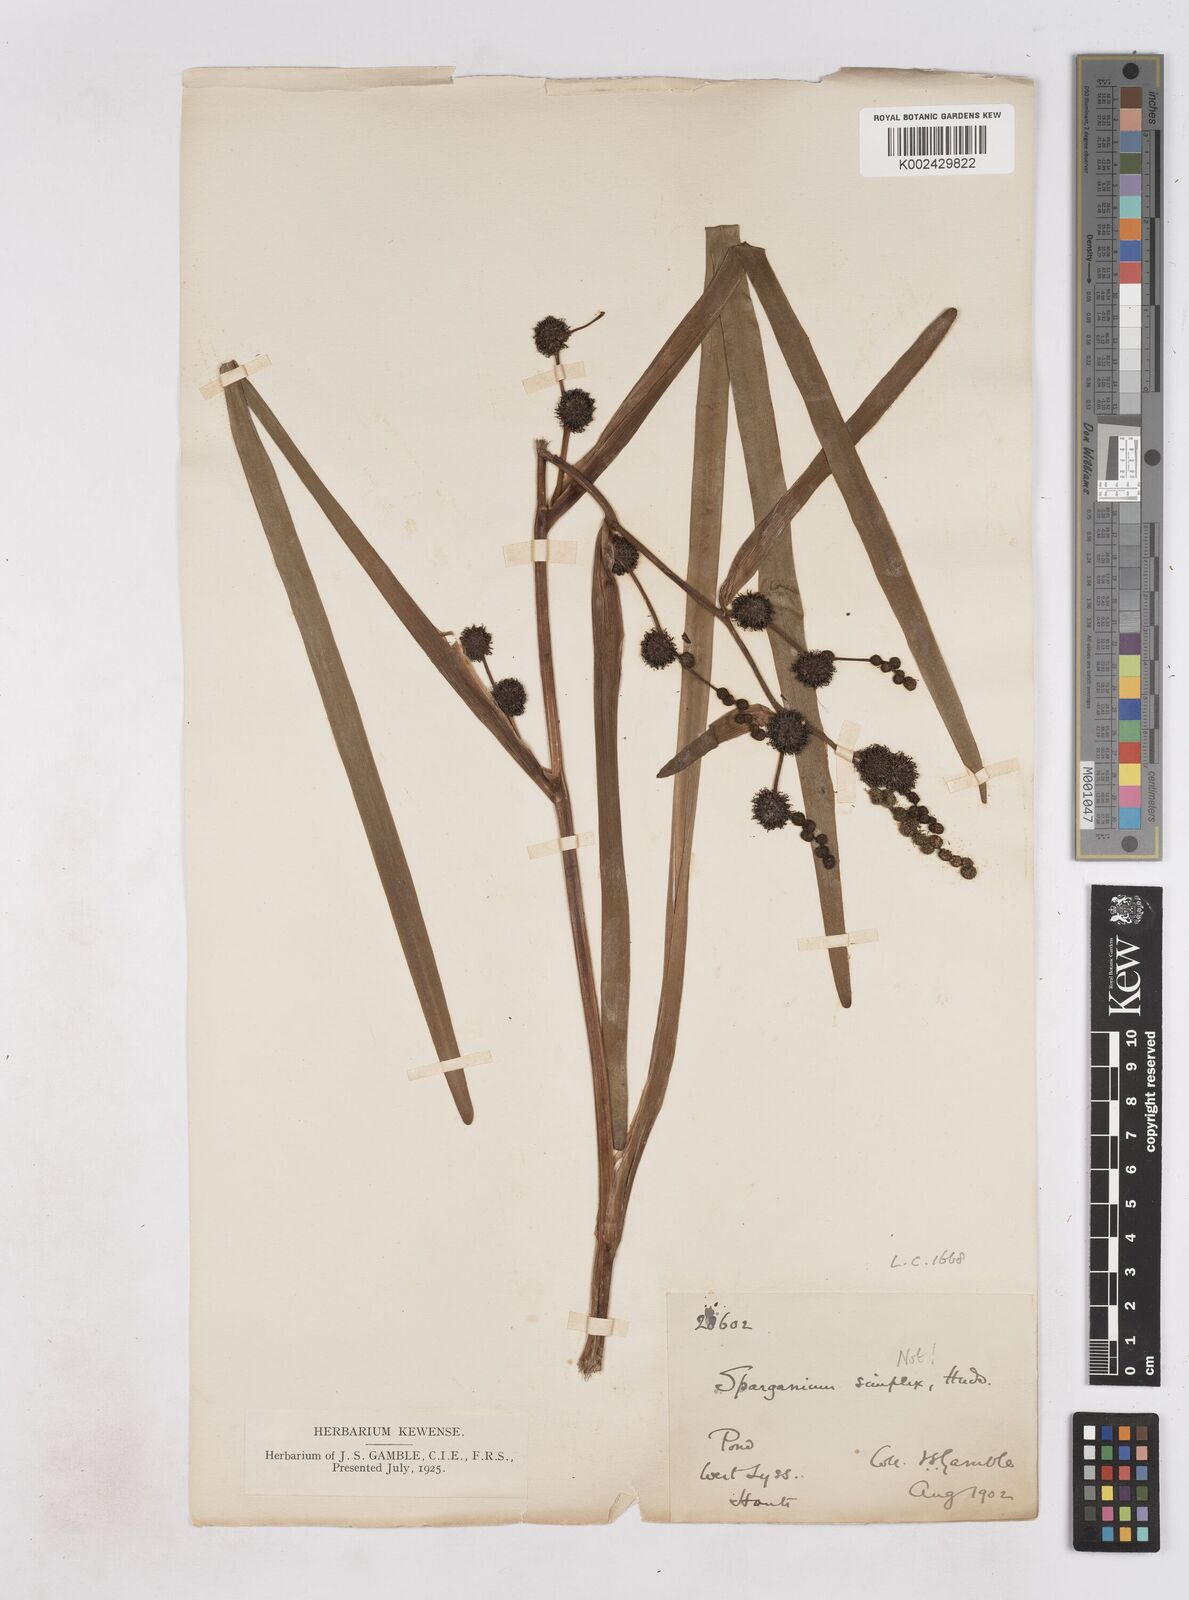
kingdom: Plantae
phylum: Tracheophyta
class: Liliopsida
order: Poales
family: Typhaceae
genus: Sparganium
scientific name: Sparganium erectum
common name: Branched bur-reed
